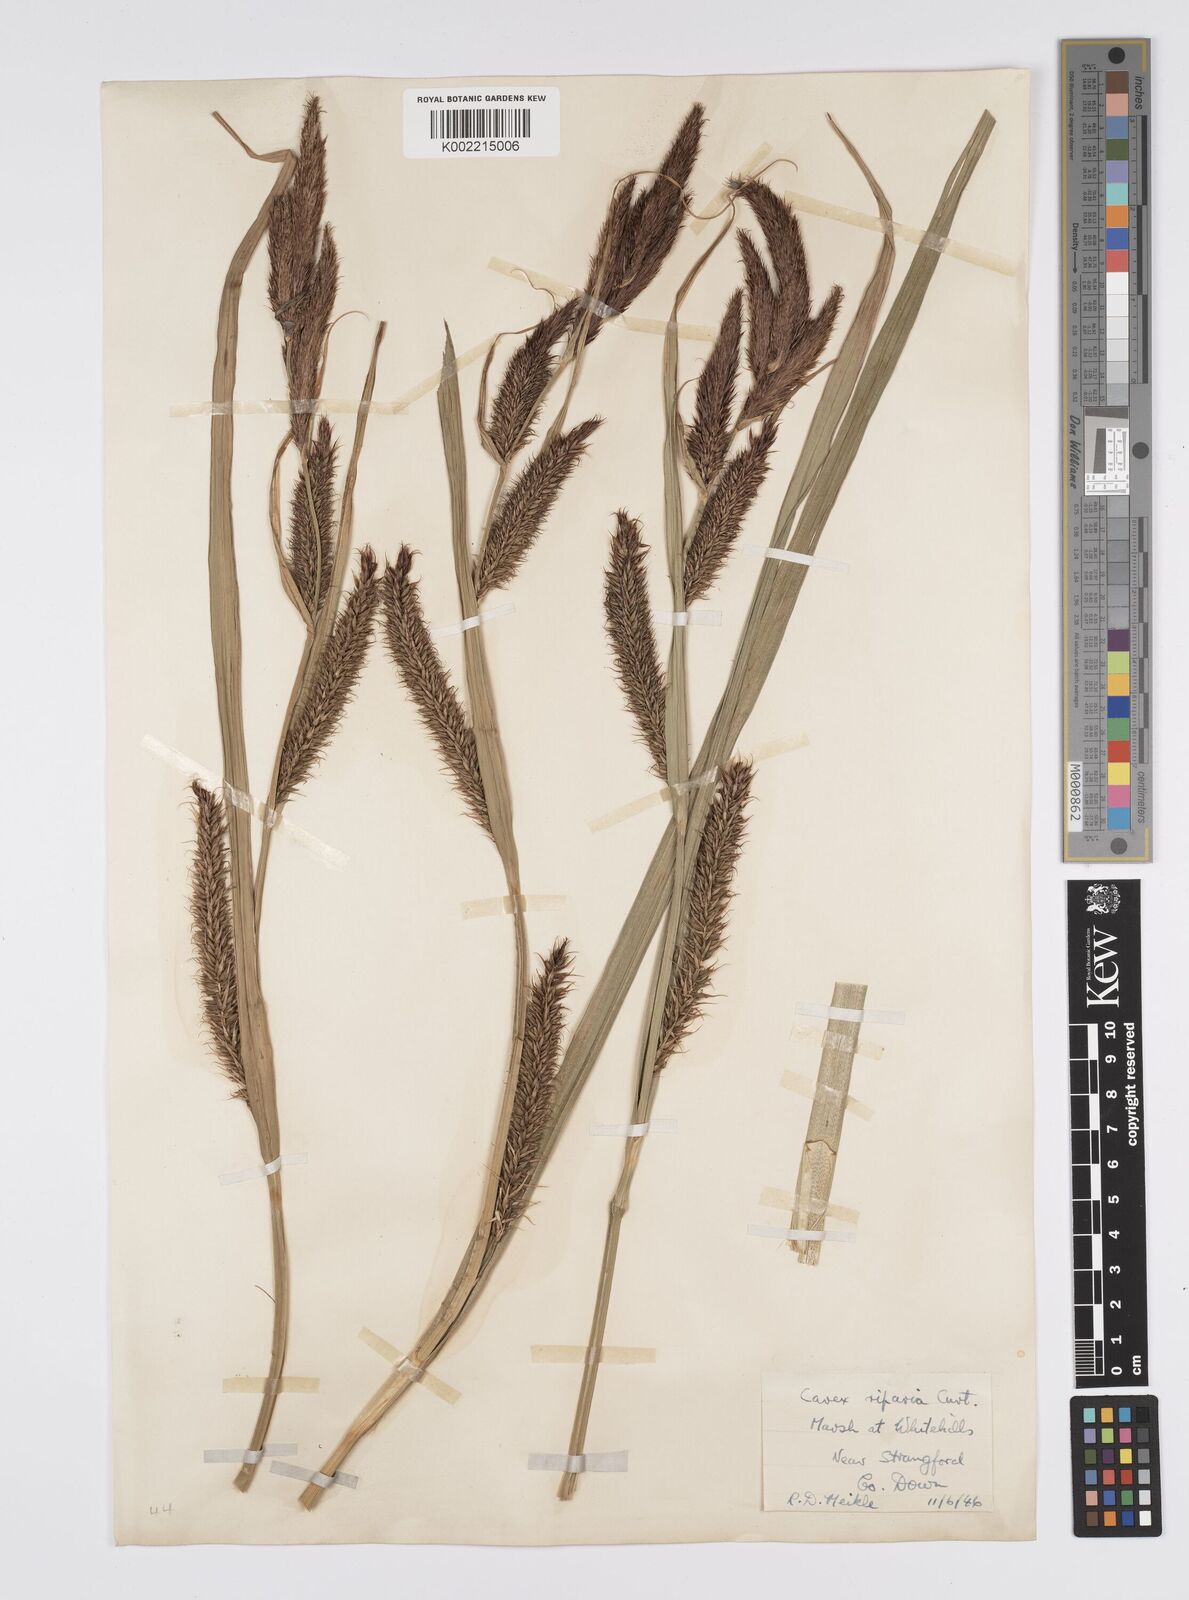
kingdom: Plantae
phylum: Tracheophyta
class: Liliopsida
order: Poales
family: Cyperaceae
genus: Carex
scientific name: Carex riparia
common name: Greater pond-sedge
